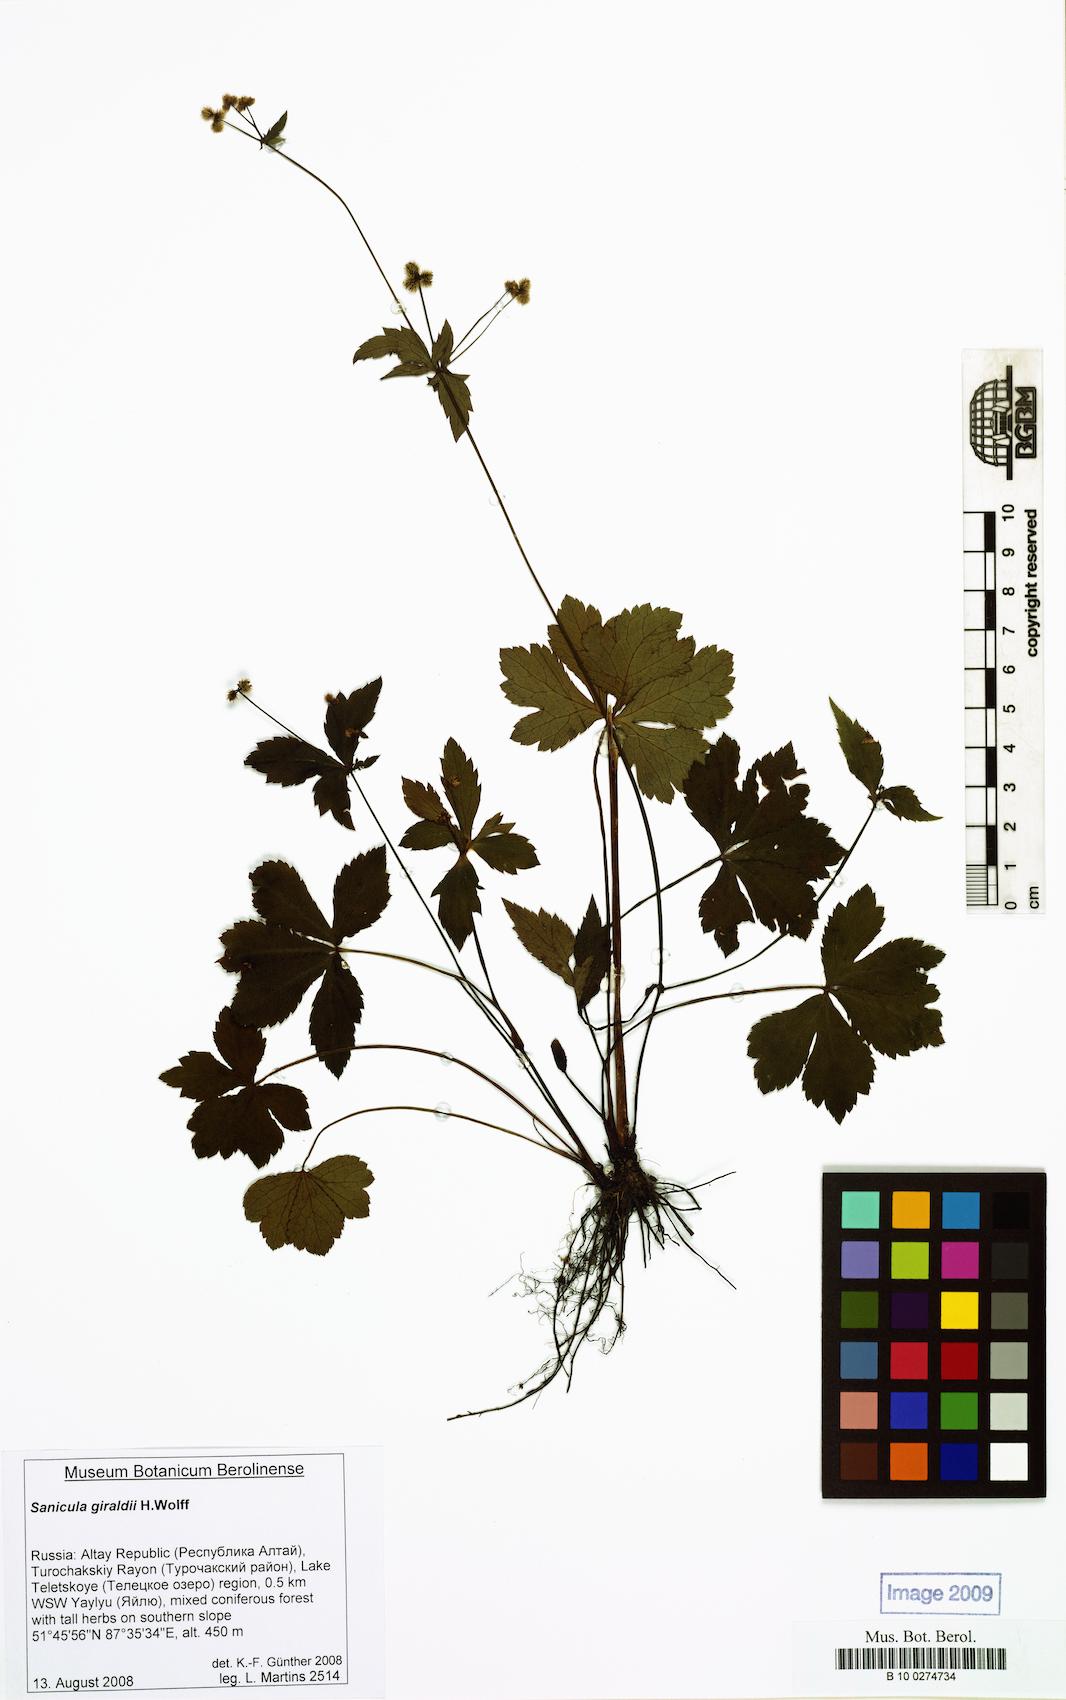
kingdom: Plantae
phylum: Tracheophyta
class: Magnoliopsida
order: Apiales
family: Apiaceae
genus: Sanicula
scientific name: Sanicula giraldii
